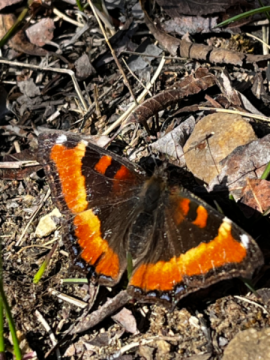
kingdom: Animalia
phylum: Arthropoda
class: Insecta
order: Lepidoptera
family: Nymphalidae
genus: Aglais
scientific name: Aglais milberti
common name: Milbert's Tortoiseshell
